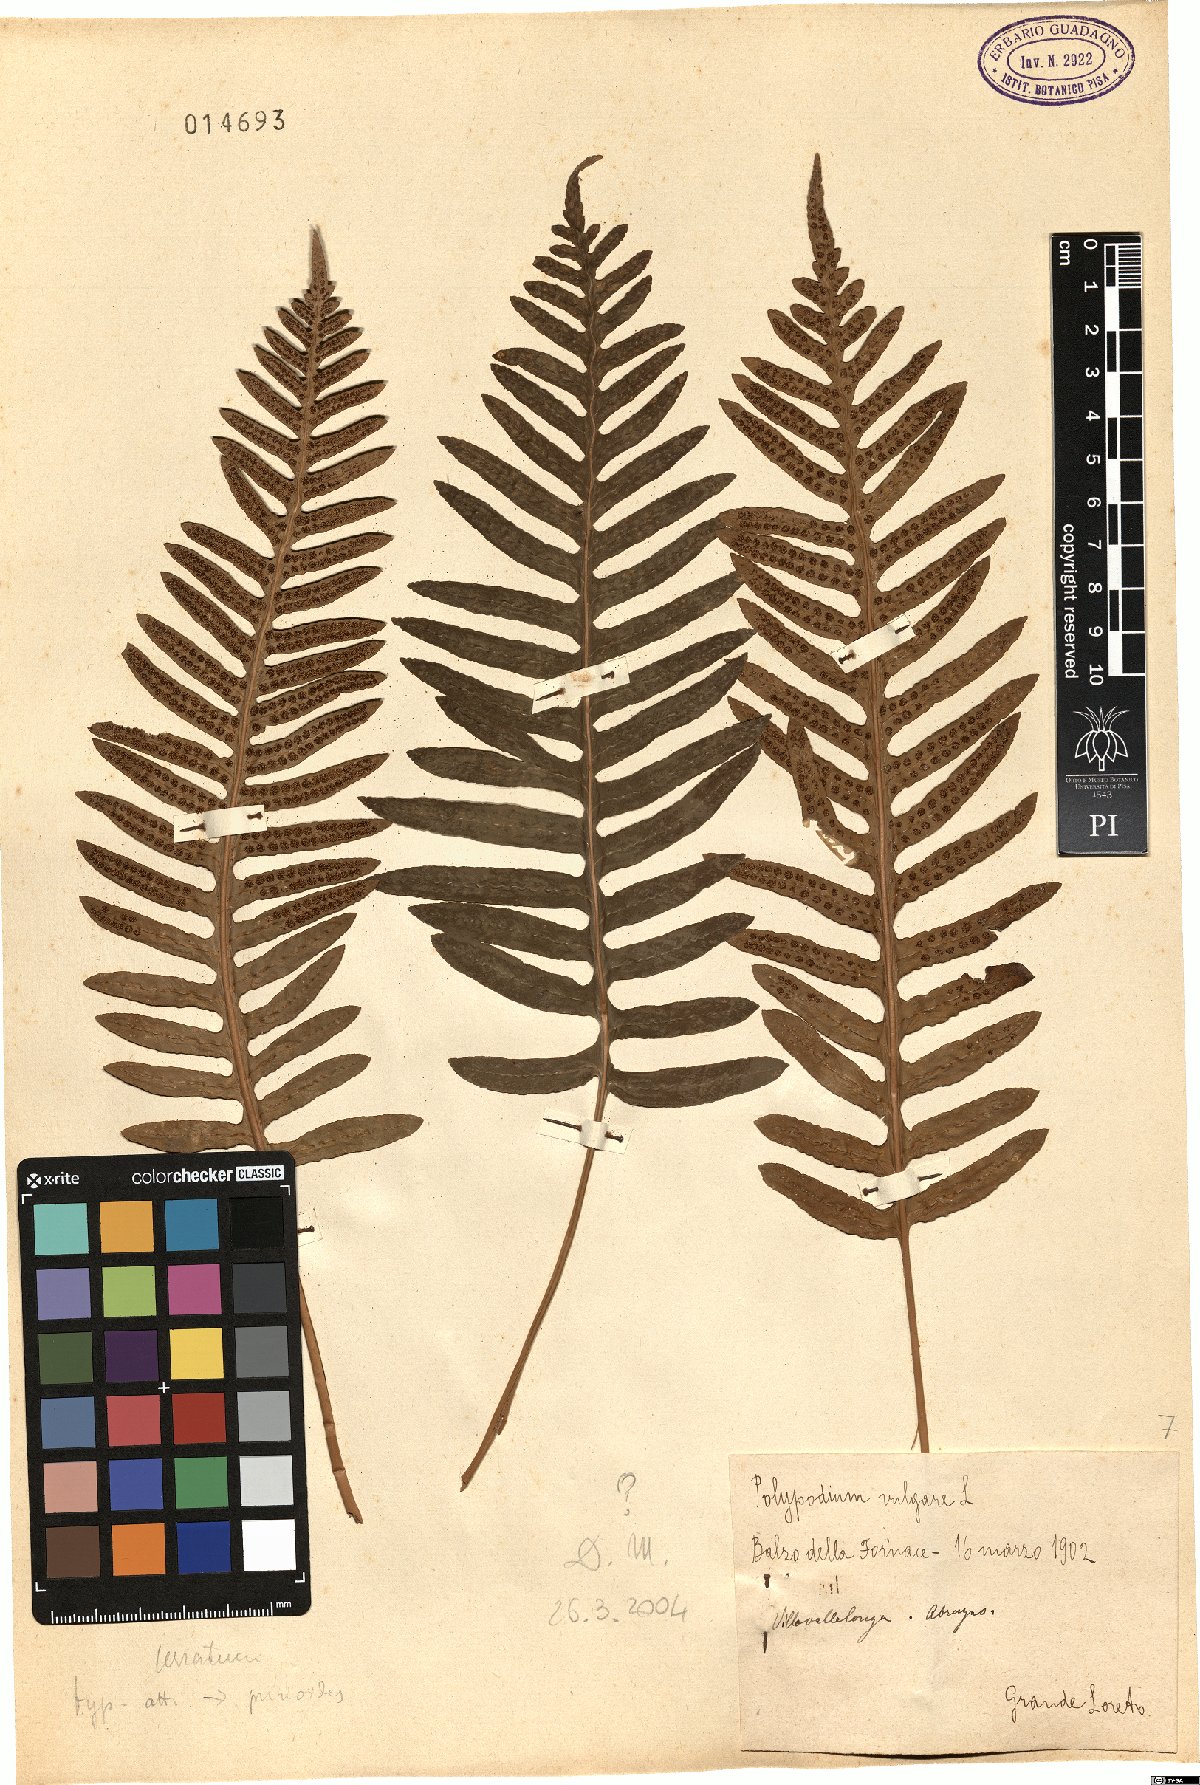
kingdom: Plantae
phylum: Tracheophyta
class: Polypodiopsida
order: Polypodiales
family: Polypodiaceae
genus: Polypodium
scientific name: Polypodium vulgare
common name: Common polypody
